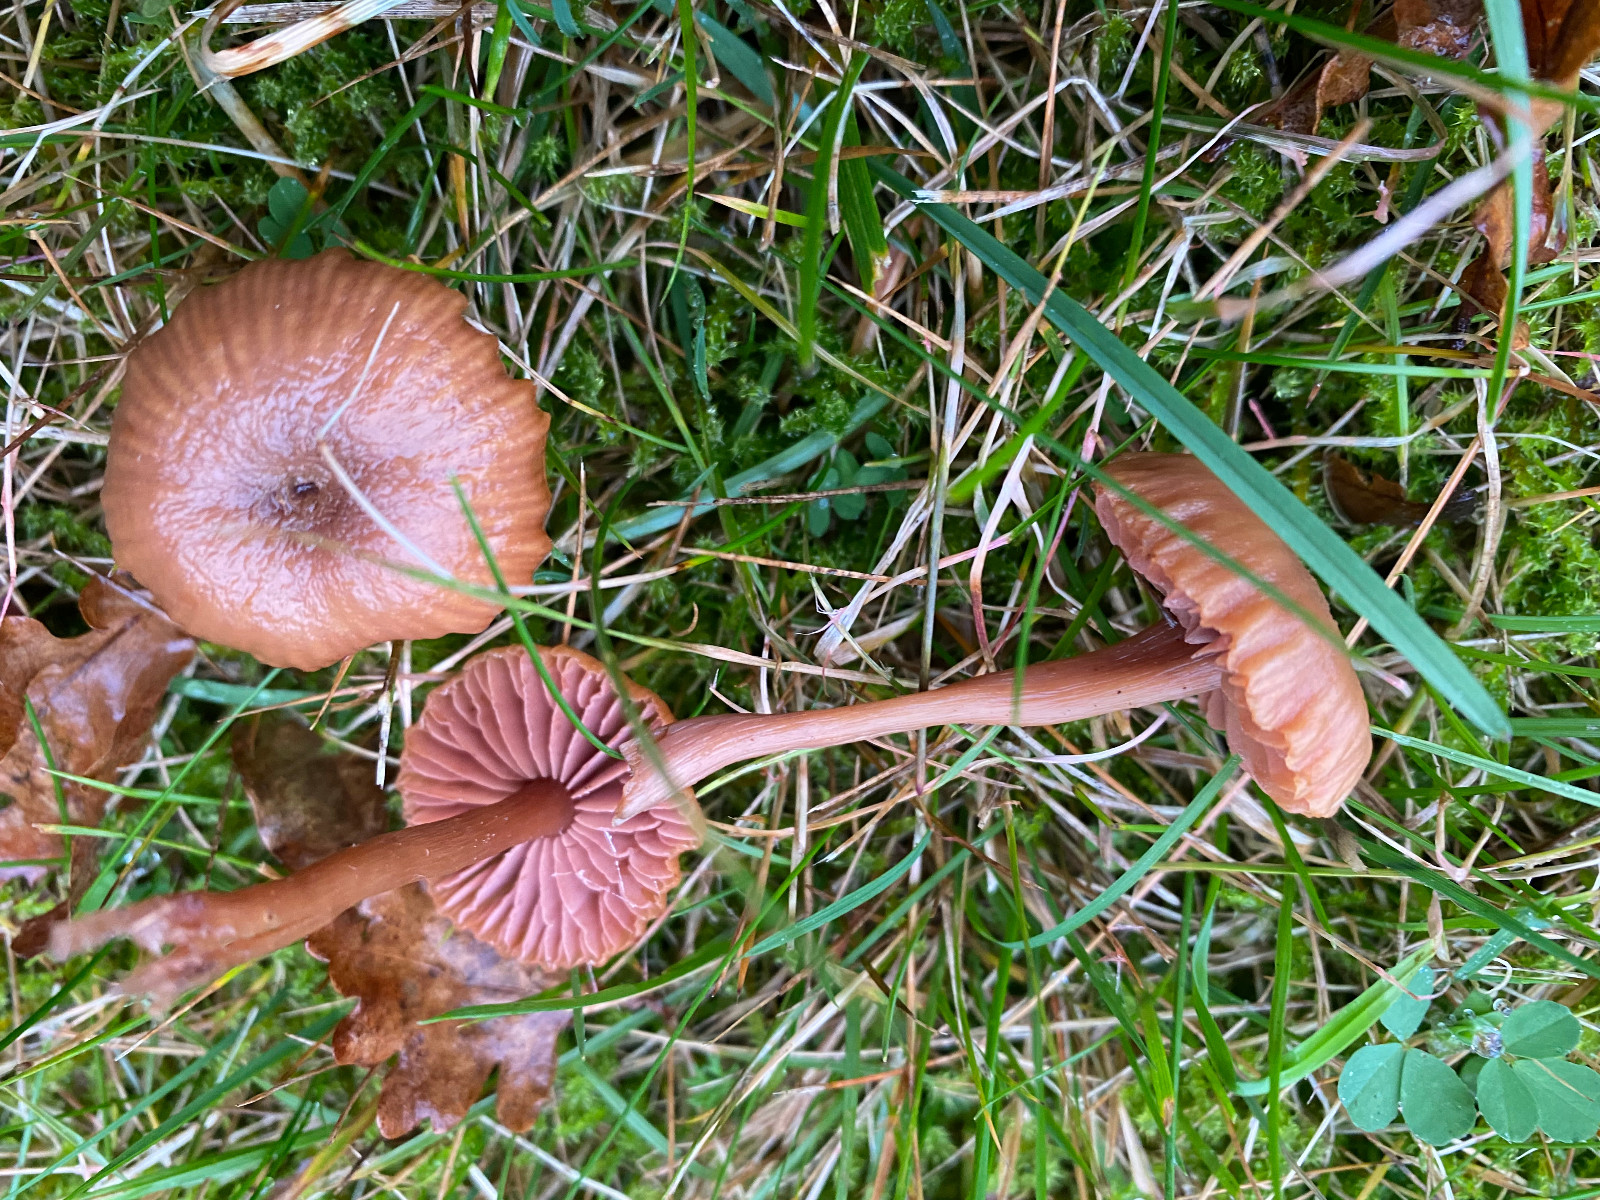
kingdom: Fungi
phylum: Basidiomycota
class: Agaricomycetes
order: Agaricales
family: Hydnangiaceae
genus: Laccaria
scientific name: Laccaria laccata
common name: rød ametysthat
